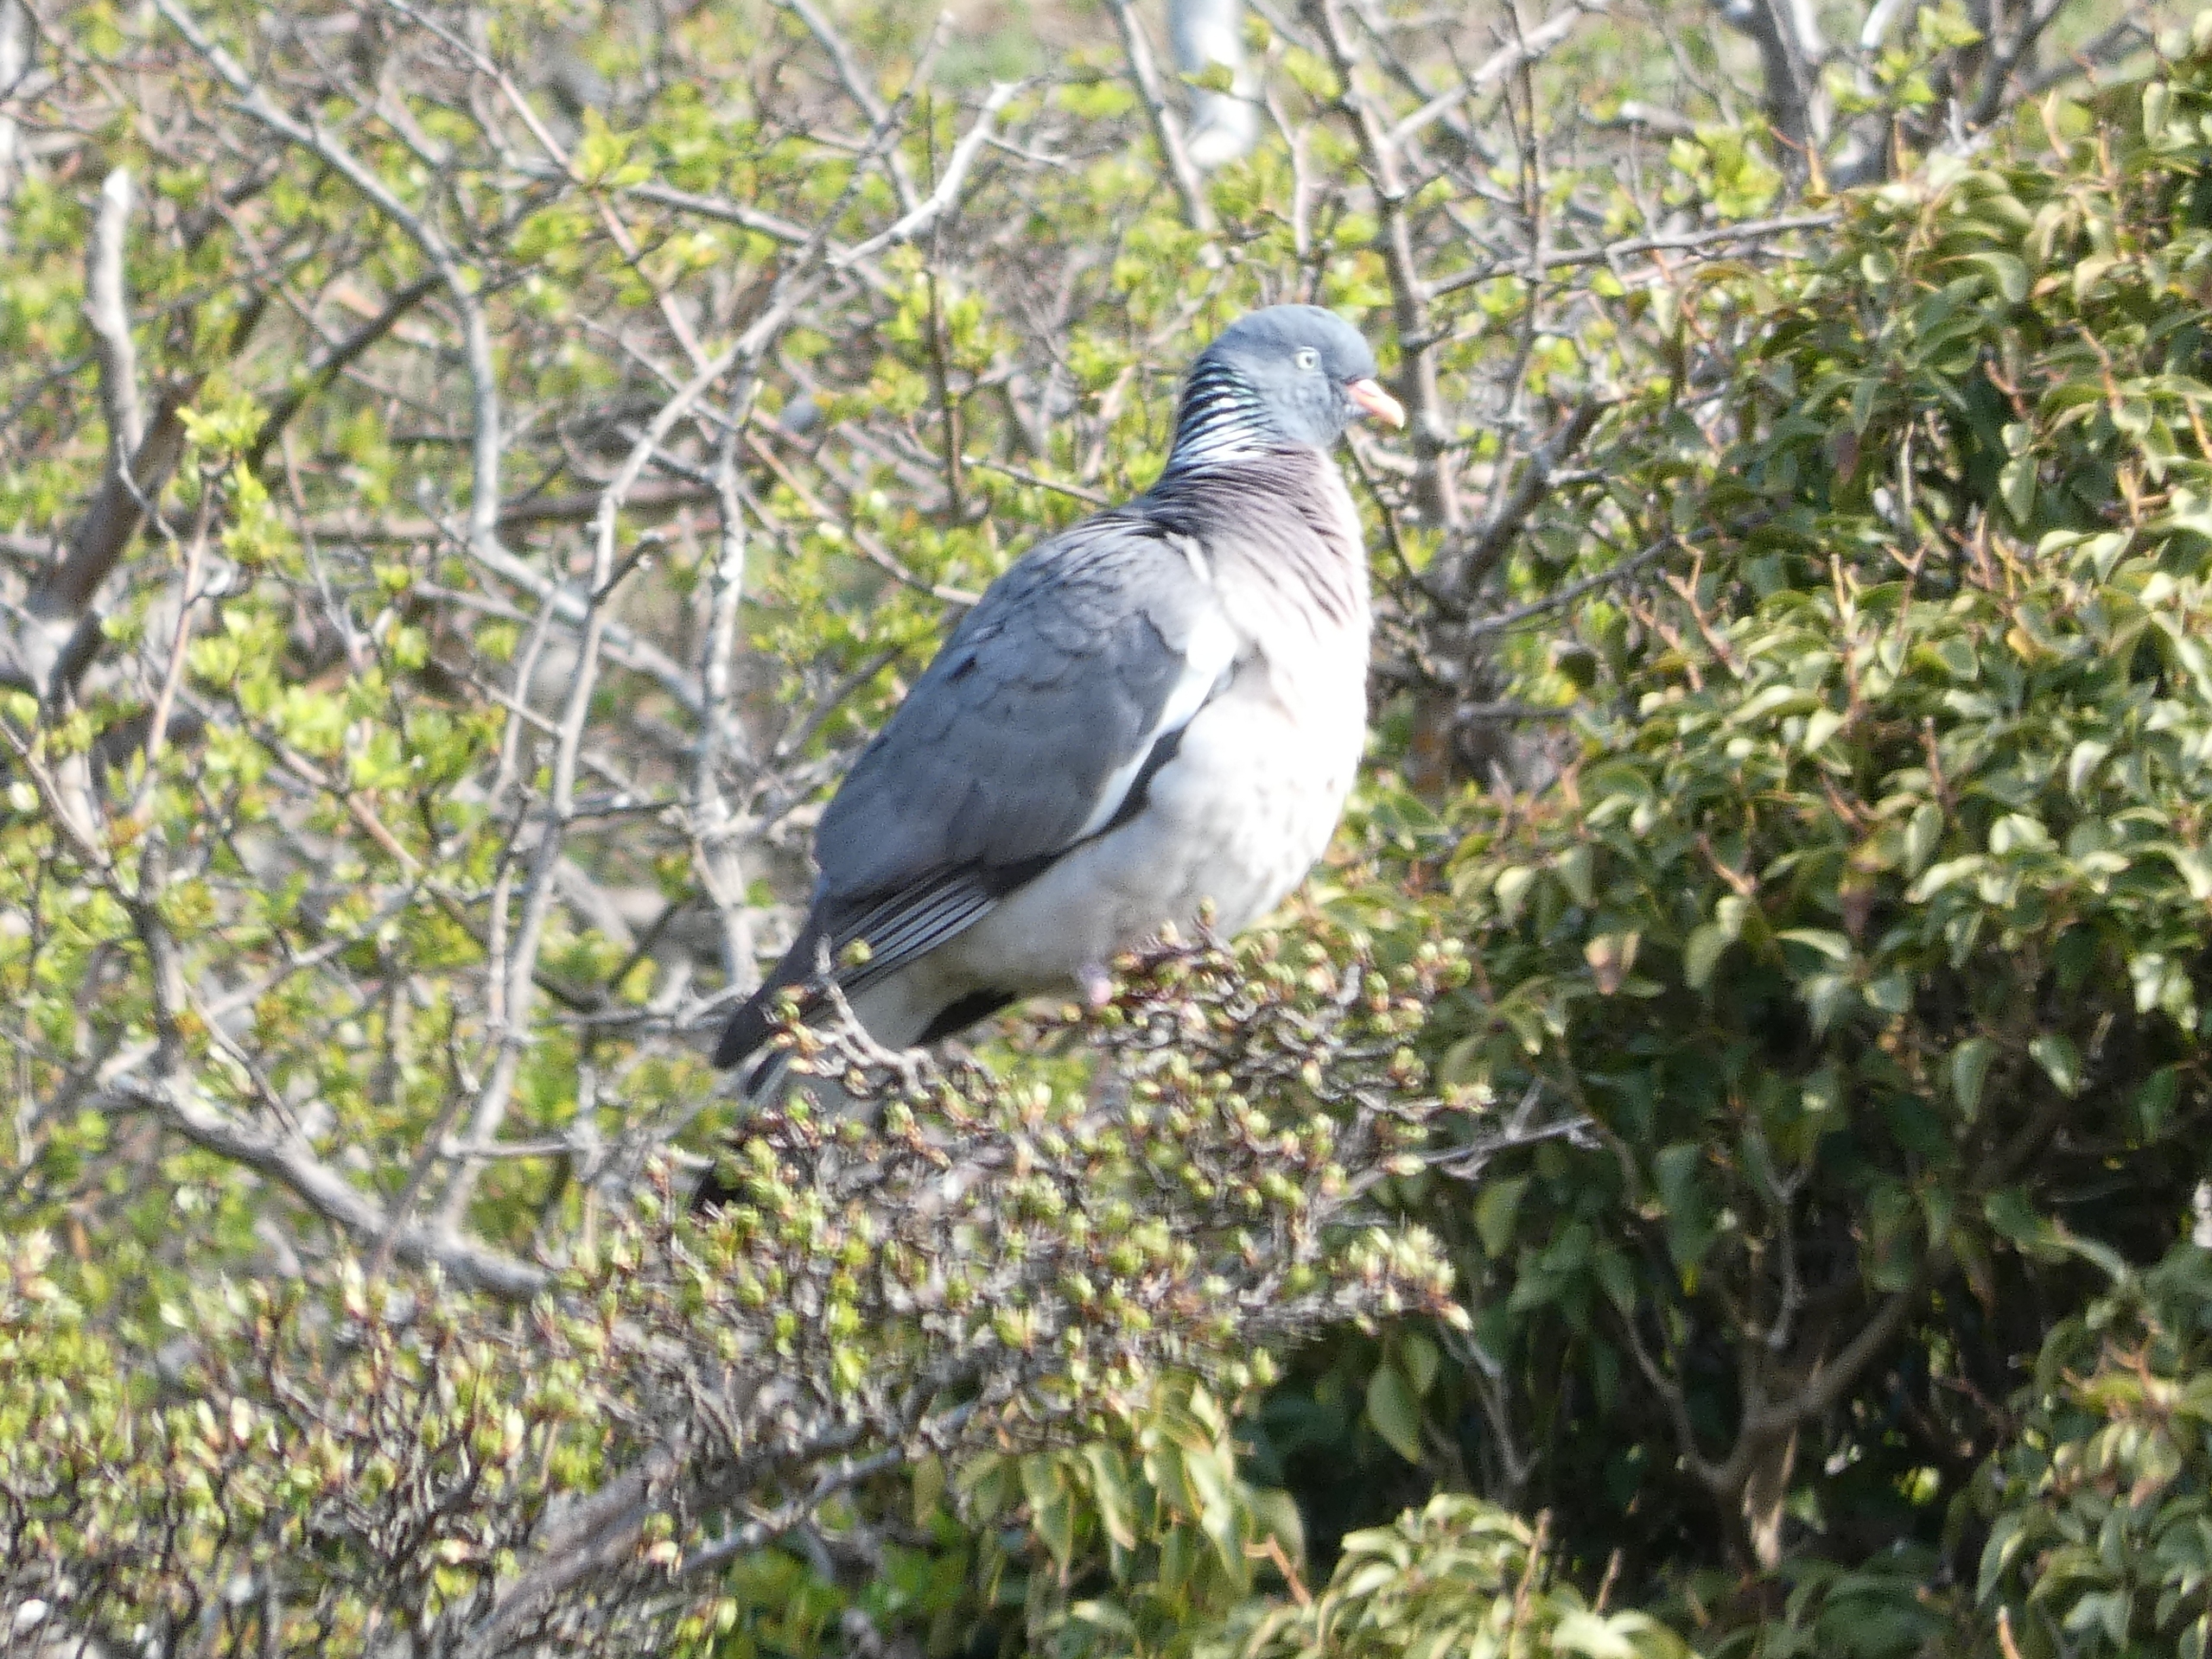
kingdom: Animalia
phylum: Chordata
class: Aves
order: Columbiformes
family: Columbidae
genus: Columba
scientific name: Columba palumbus
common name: Ringdue
